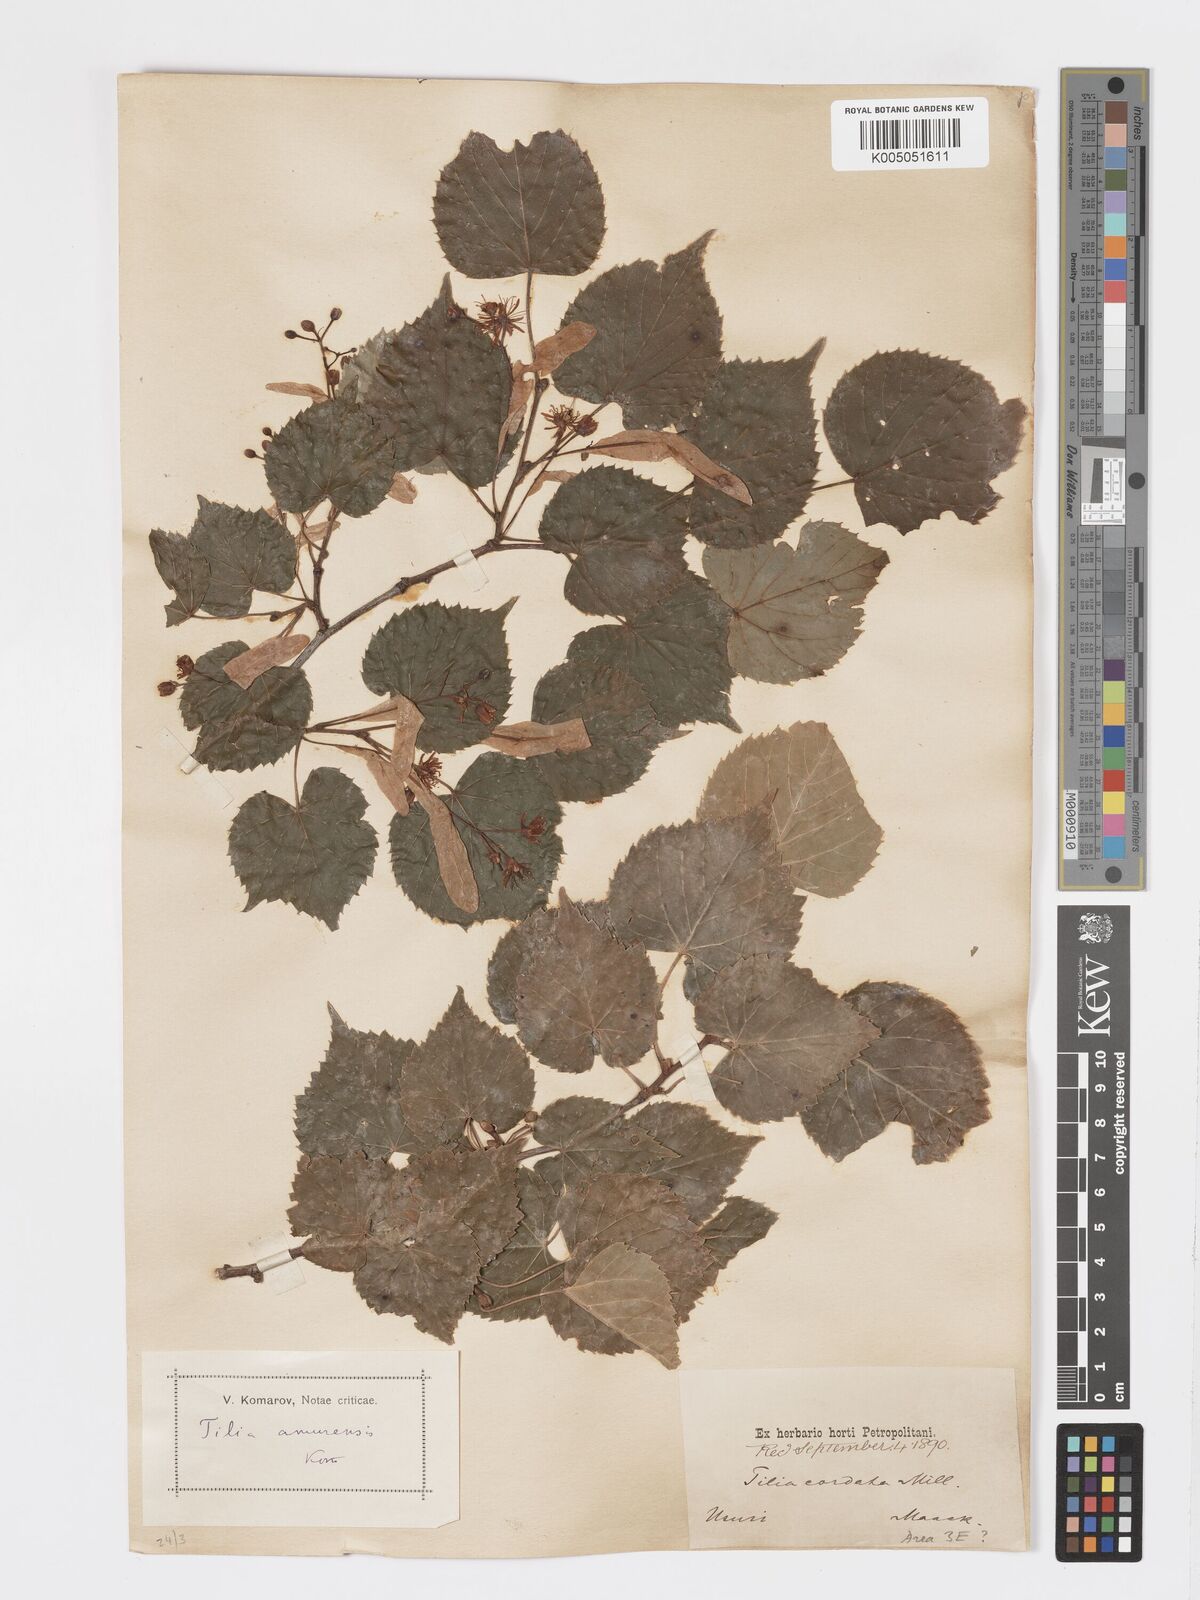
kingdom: Plantae
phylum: Tracheophyta
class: Magnoliopsida
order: Malvales
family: Malvaceae
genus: Tilia
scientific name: Tilia
